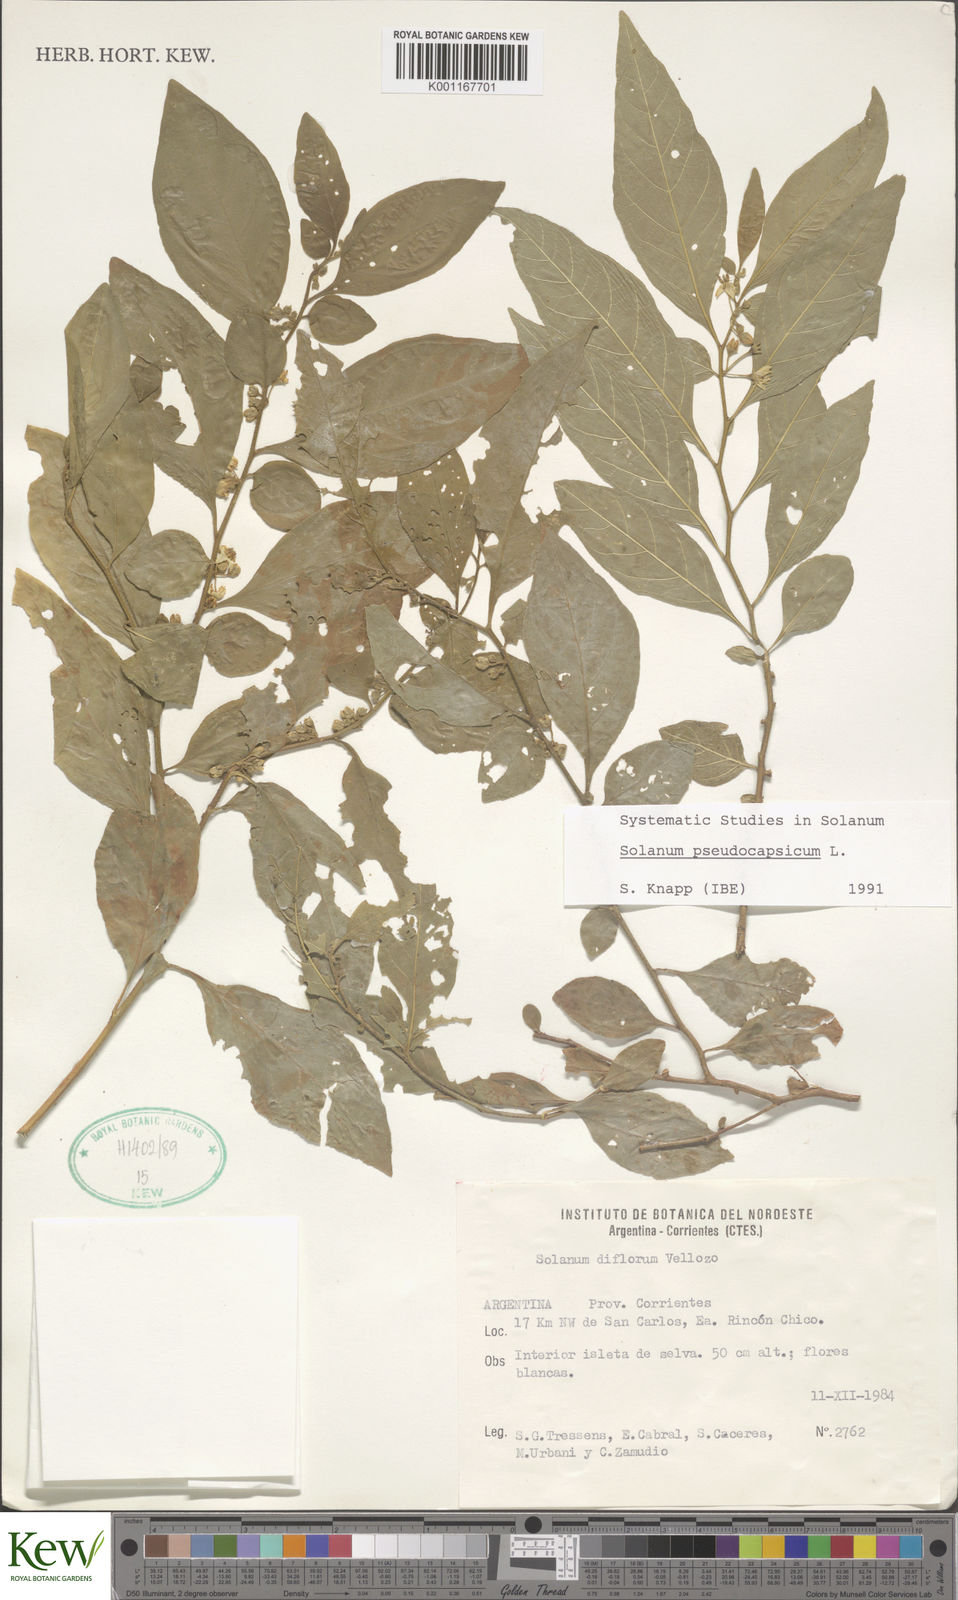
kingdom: Plantae
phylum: Tracheophyta
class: Magnoliopsida
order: Solanales
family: Solanaceae
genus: Solanum
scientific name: Solanum pseudocapsicum
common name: Jerusalem cherry
